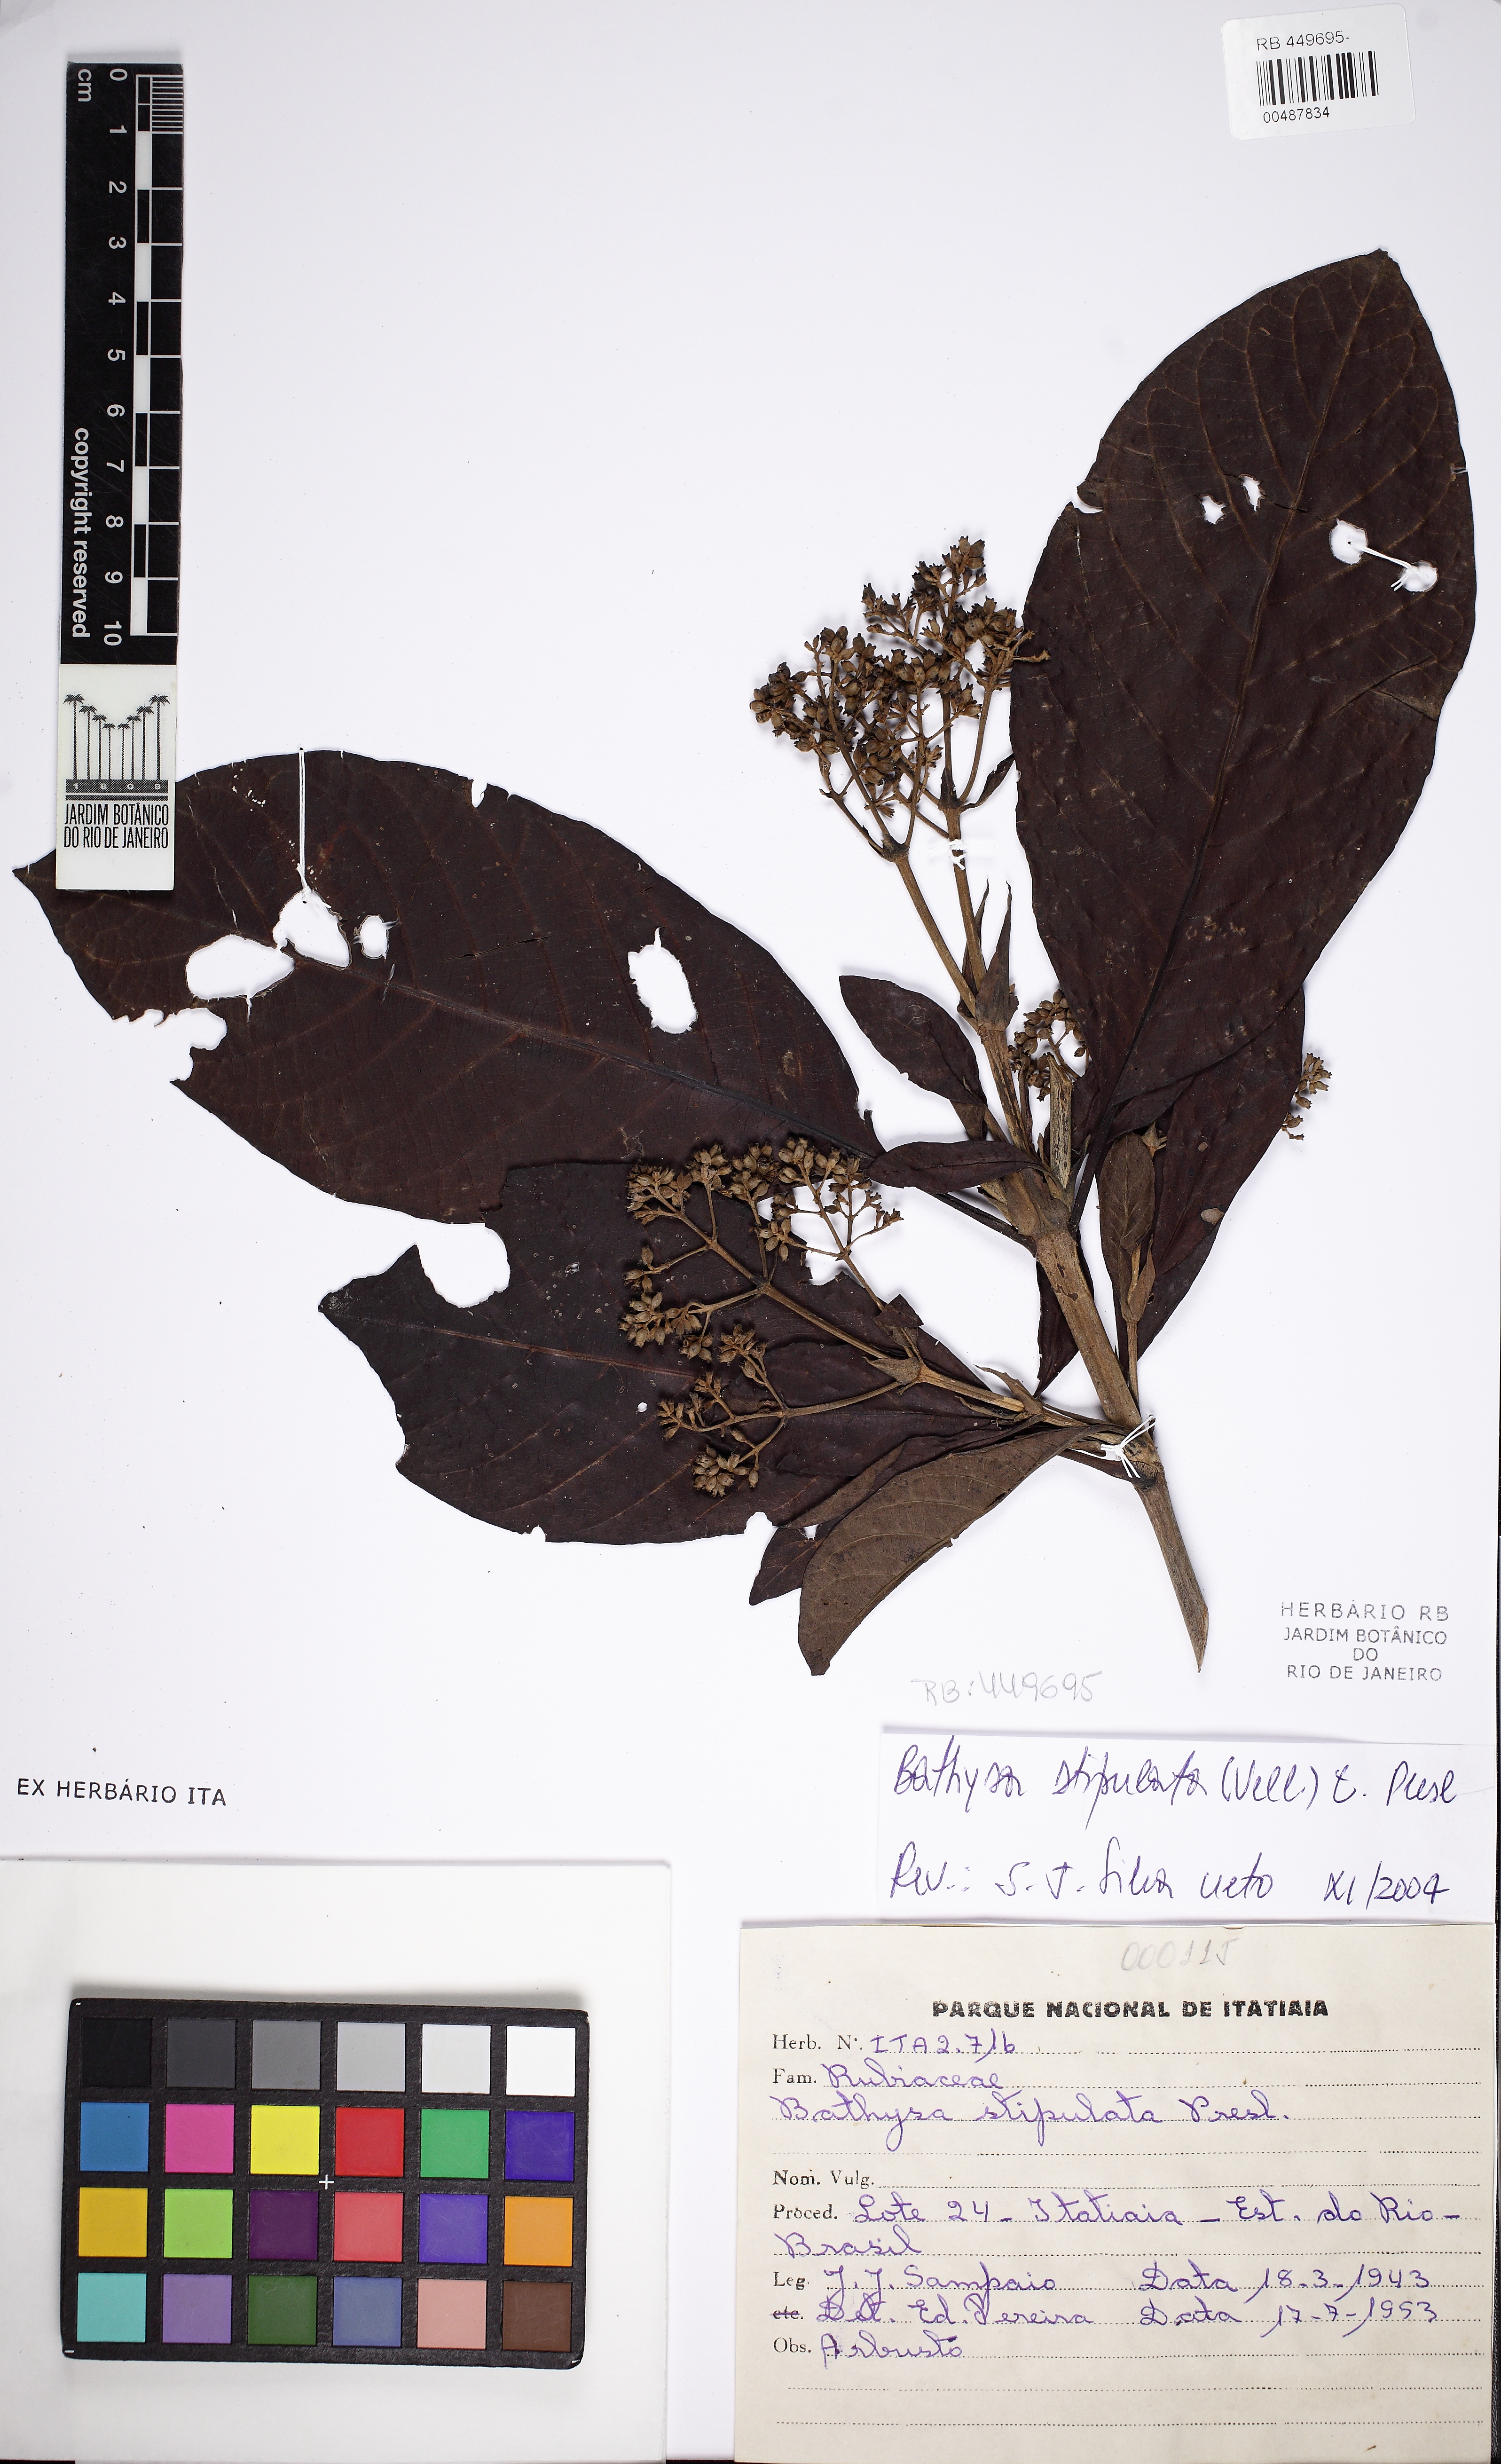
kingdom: Plantae
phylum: Tracheophyta
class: Magnoliopsida
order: Gentianales
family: Rubiaceae
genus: Bathysa
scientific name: Bathysa stipulata
